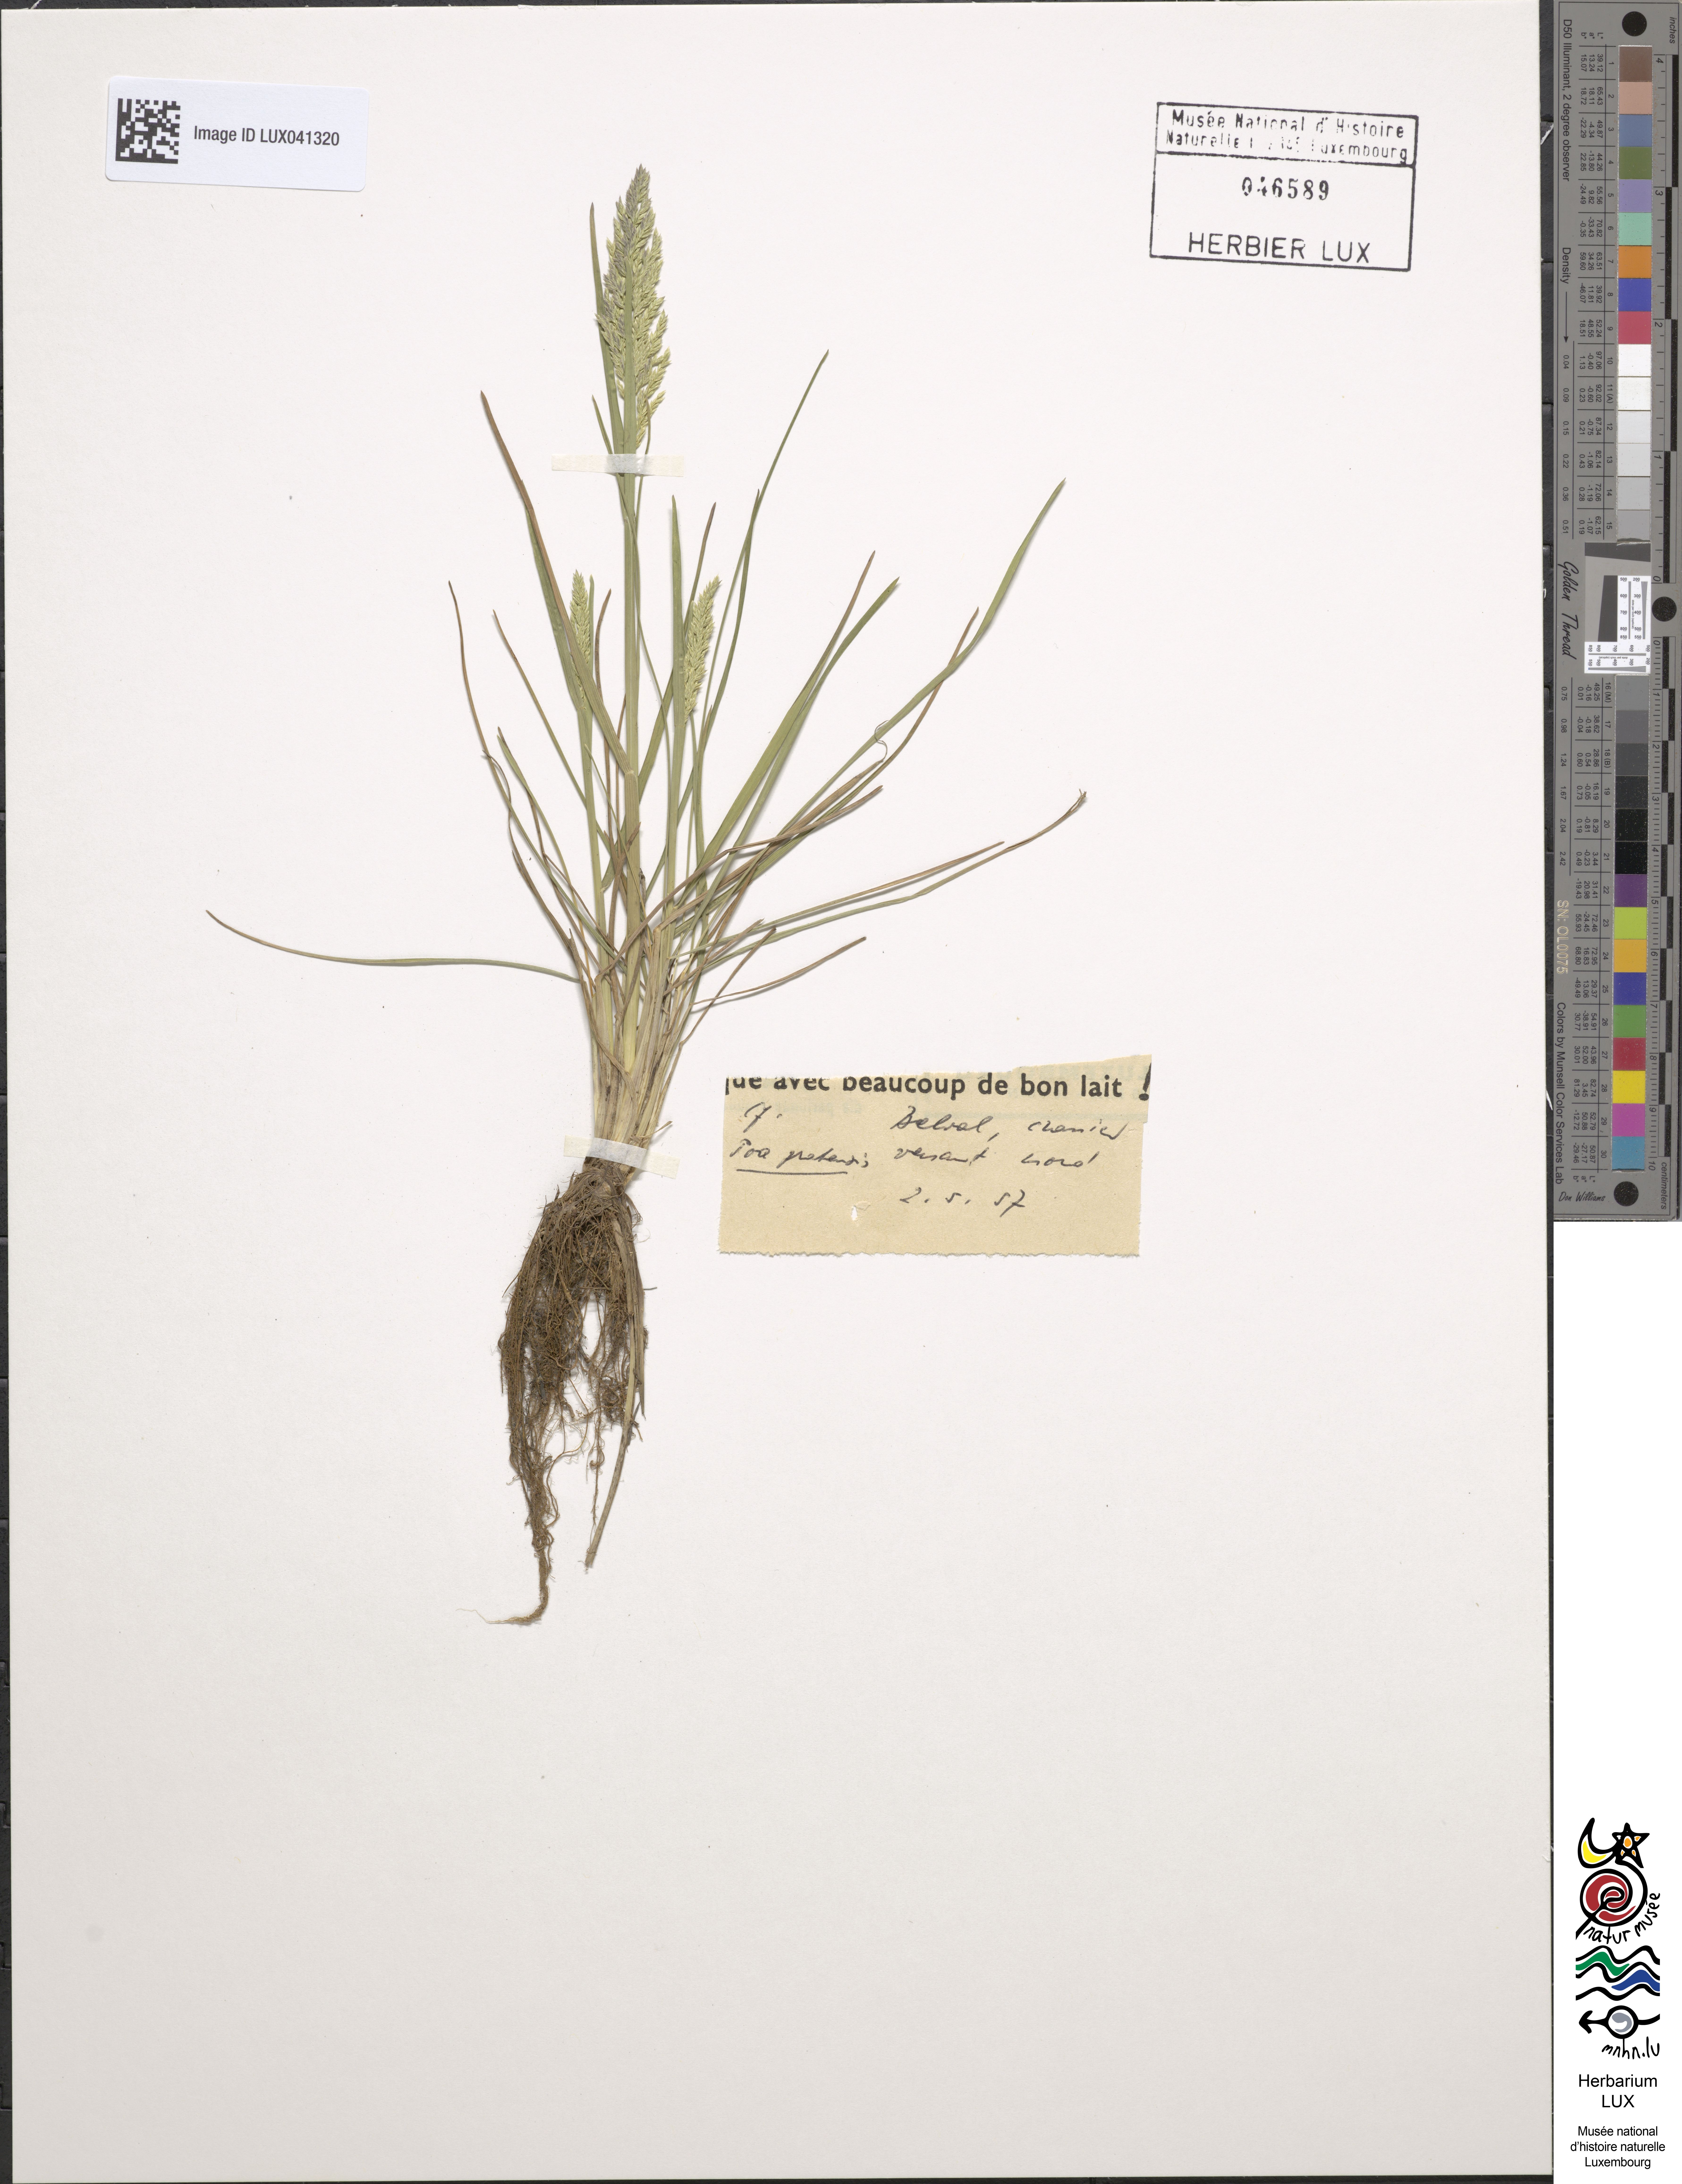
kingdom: Plantae
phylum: Tracheophyta
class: Liliopsida
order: Poales
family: Poaceae
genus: Poa
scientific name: Poa pratensis
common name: Kentucky bluegrass
